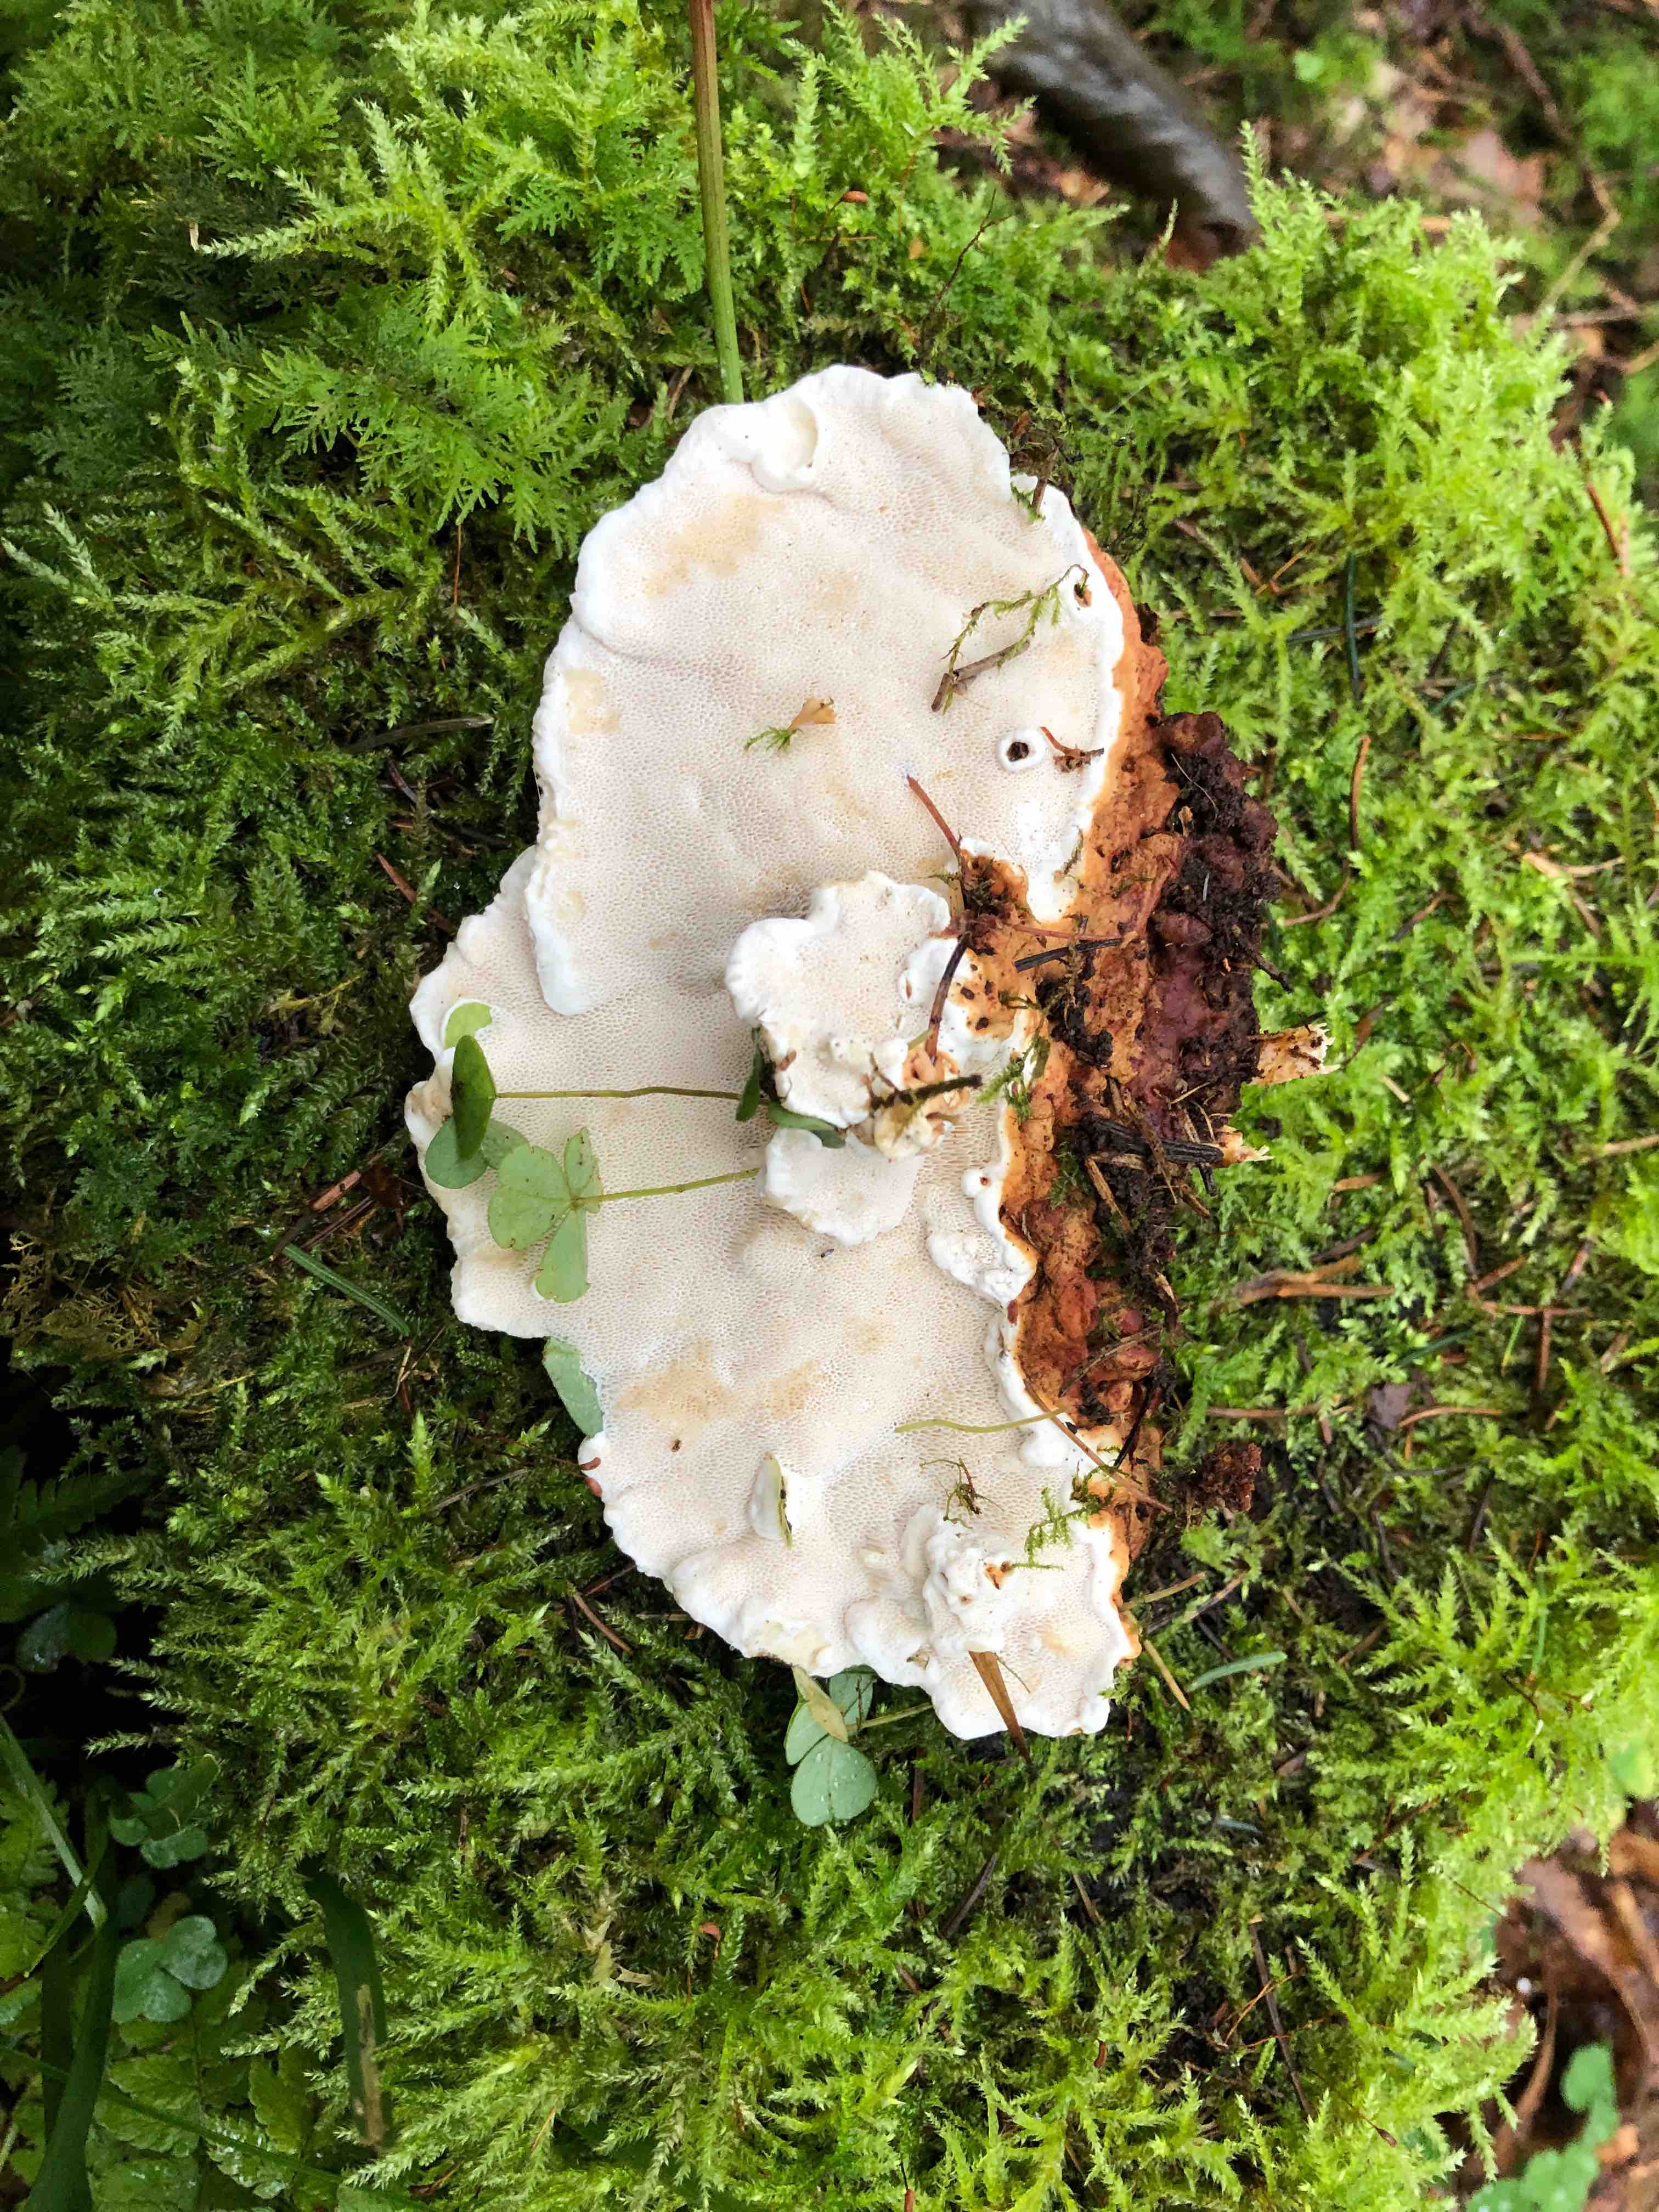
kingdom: Fungi
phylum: Basidiomycota
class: Agaricomycetes
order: Russulales
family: Bondarzewiaceae
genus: Heterobasidion
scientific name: Heterobasidion annosum
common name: almindelig rodfordærver
